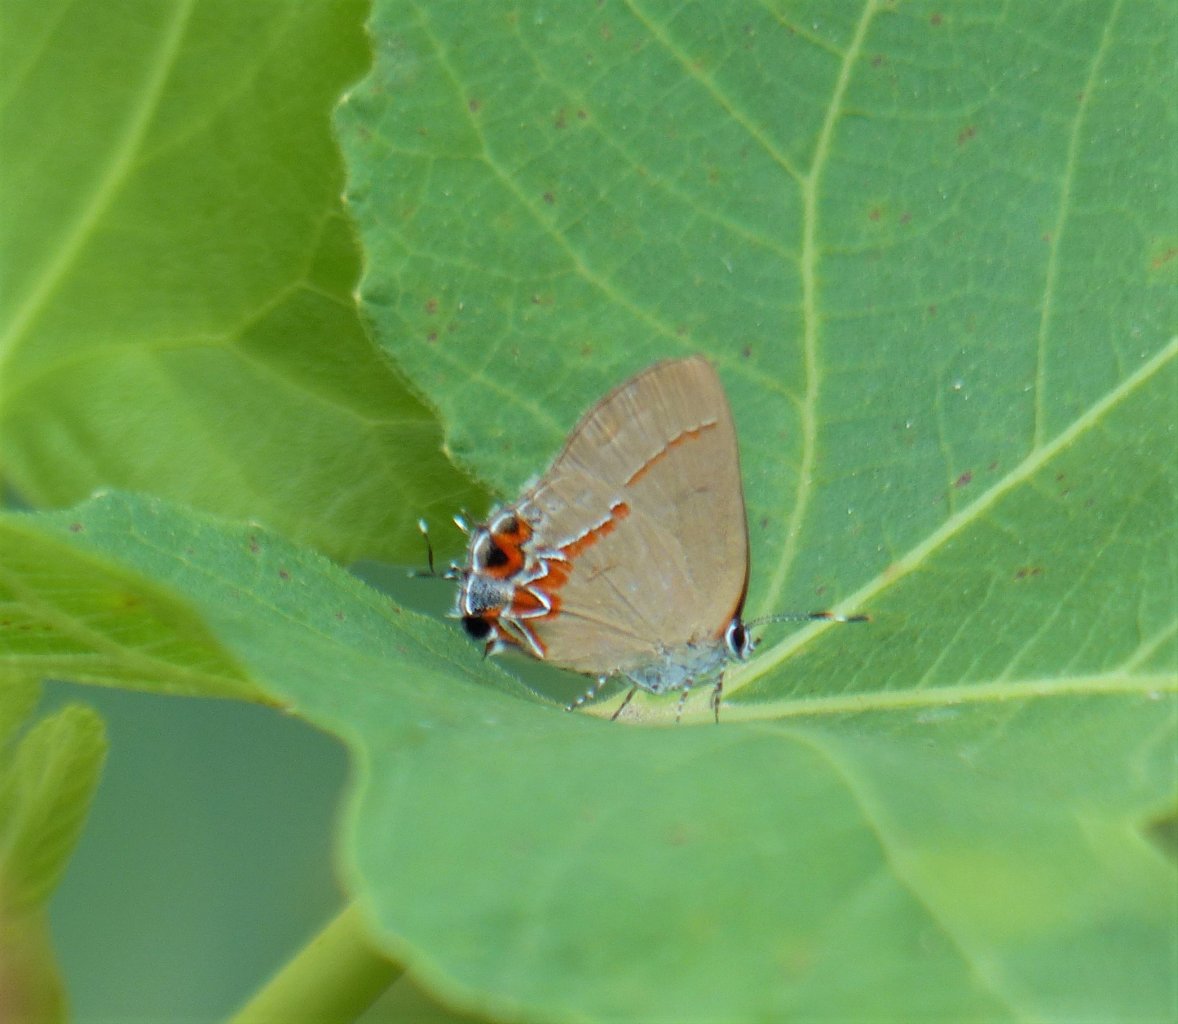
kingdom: Animalia
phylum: Arthropoda
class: Insecta
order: Lepidoptera
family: Lycaenidae
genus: Calycopis
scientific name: Calycopis isobeon
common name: Dusky-blue Groundstreak
